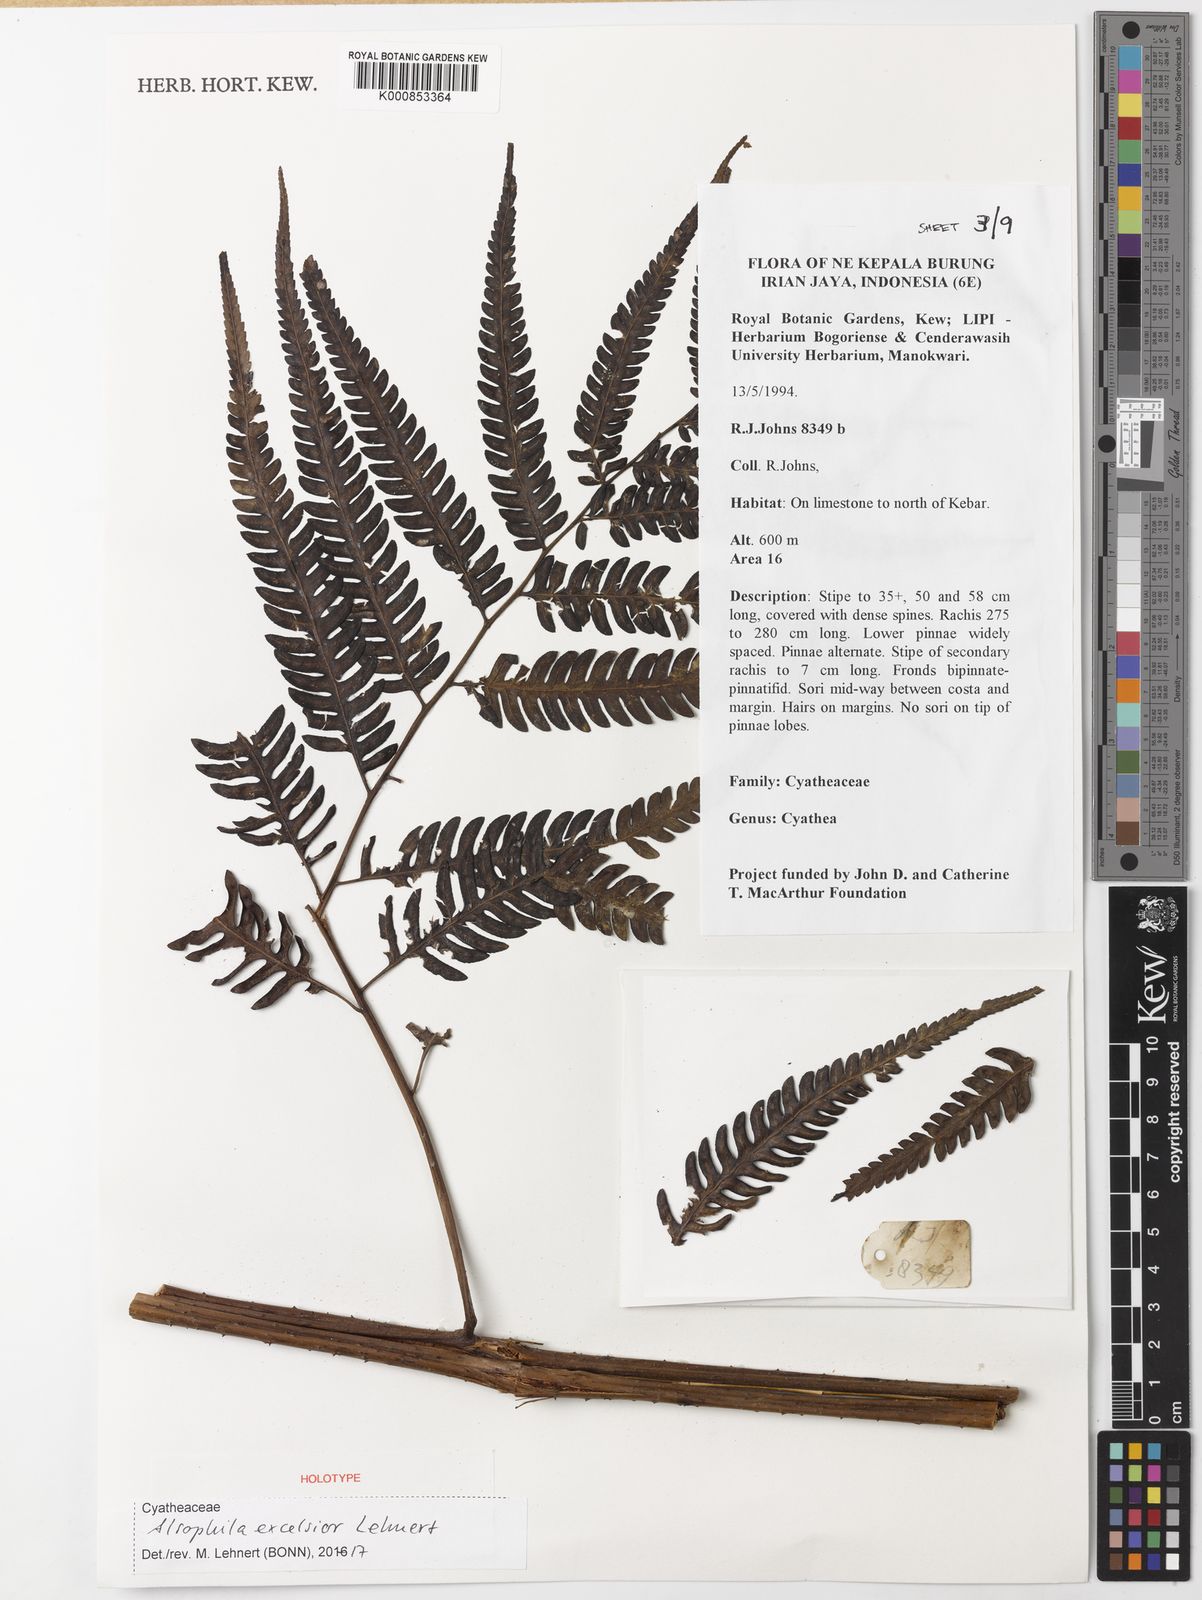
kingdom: Plantae
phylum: Tracheophyta
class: Polypodiopsida
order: Cyatheales
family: Cyatheaceae
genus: Alsophila
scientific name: Alsophila excelsior
